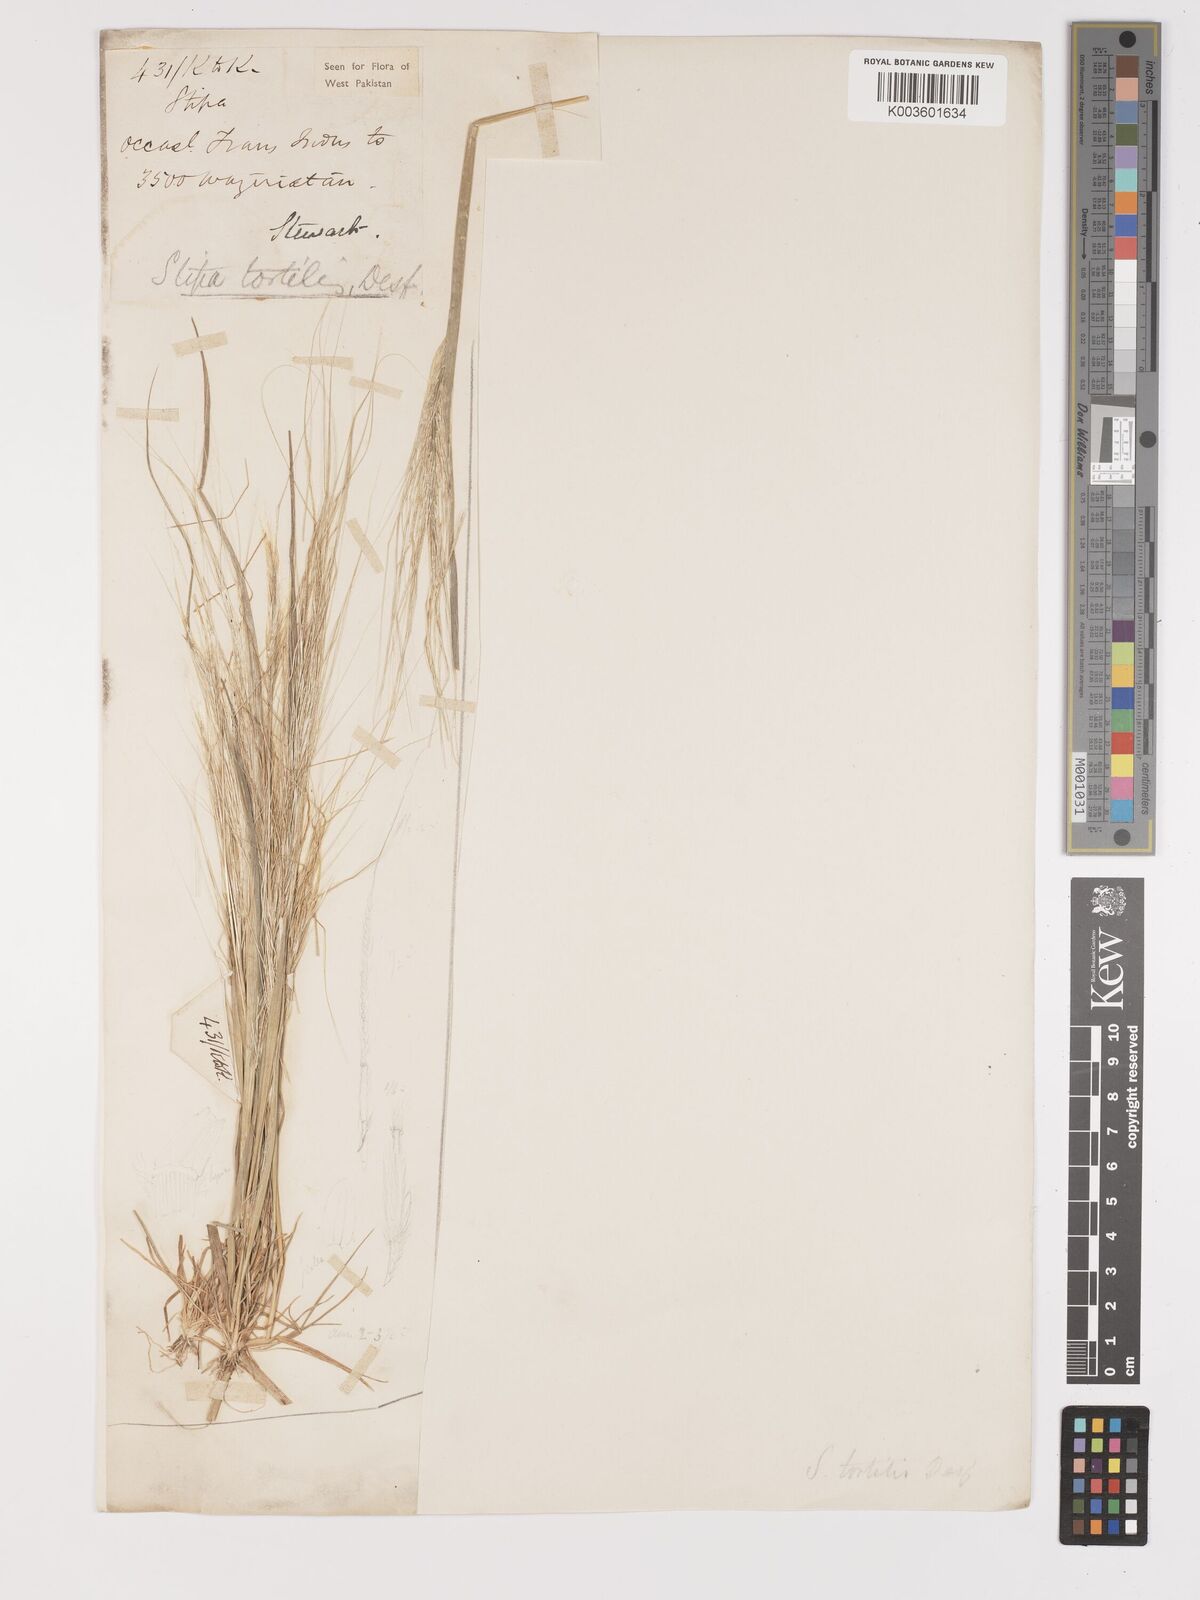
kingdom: Plantae
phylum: Tracheophyta
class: Liliopsida
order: Poales
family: Poaceae
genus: Stipellula
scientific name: Stipellula capensis
